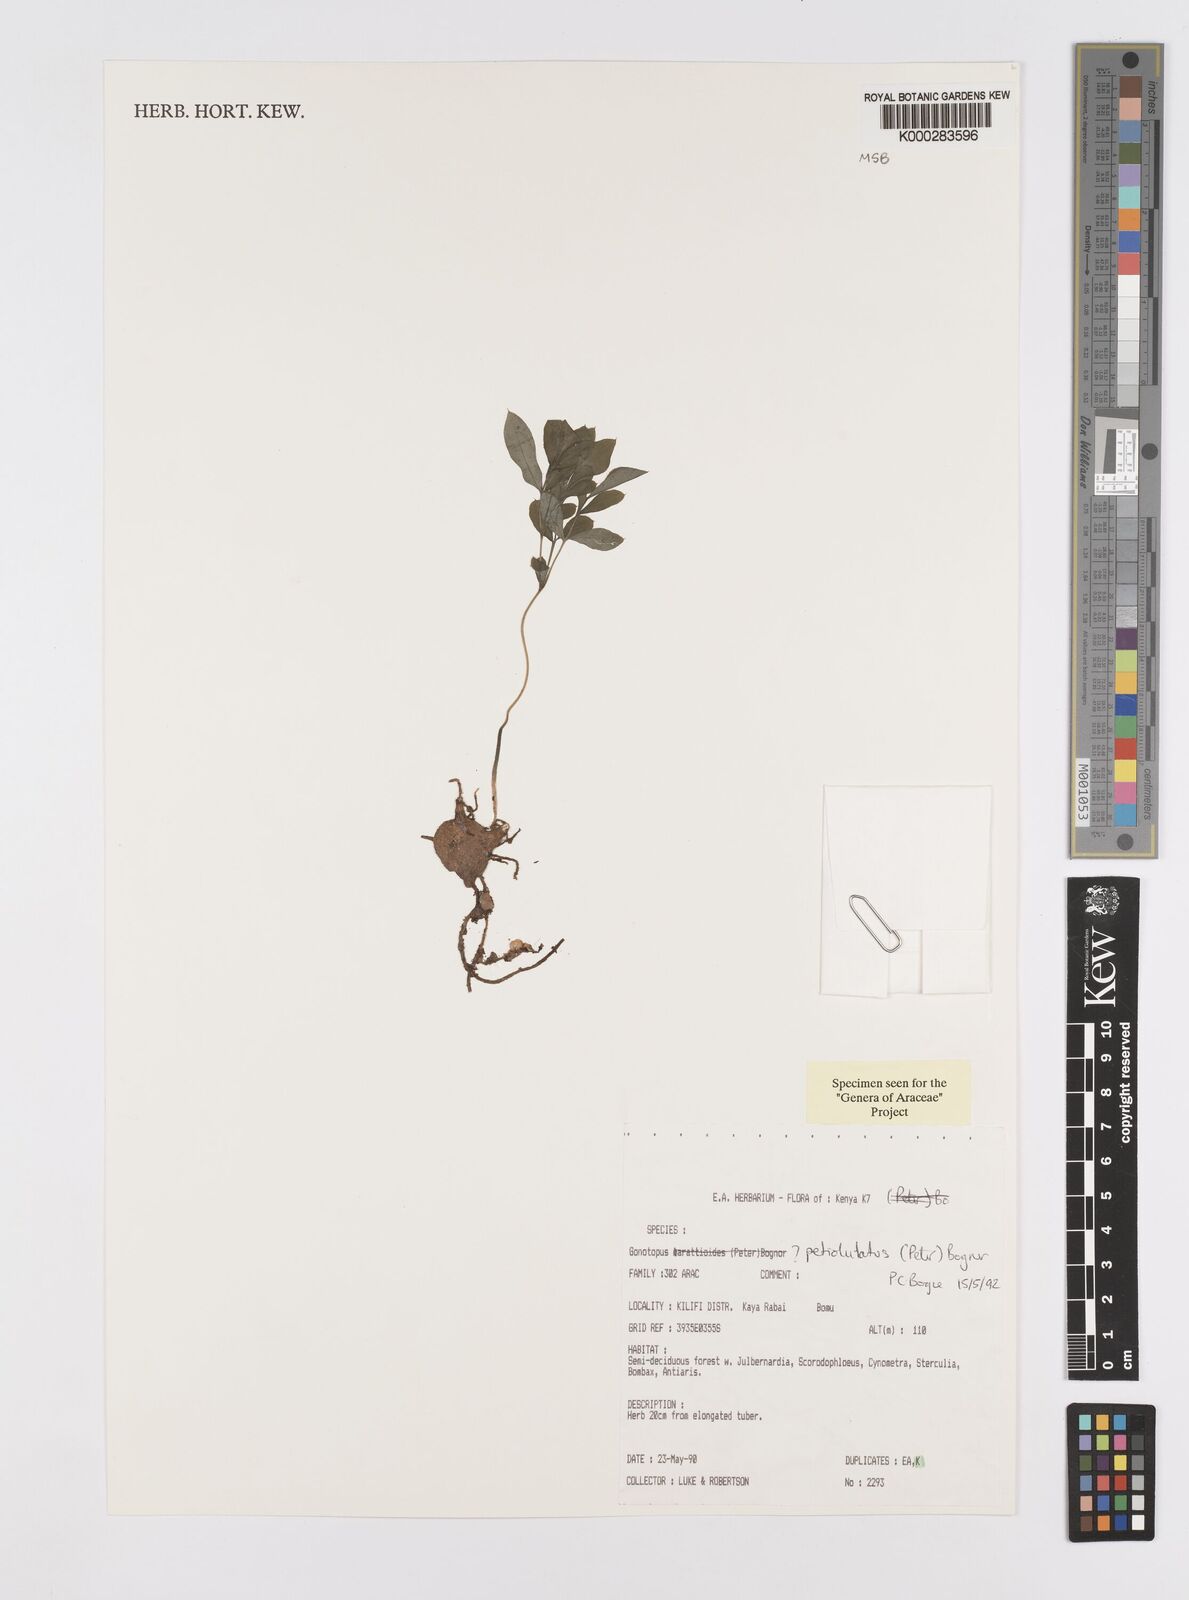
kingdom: Plantae
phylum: Tracheophyta
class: Liliopsida
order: Alismatales
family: Araceae
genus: Gonatopus
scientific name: Gonatopus petiolulatus
